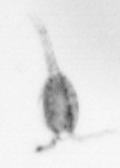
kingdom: Animalia
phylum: Arthropoda
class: Copepoda
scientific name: Copepoda
